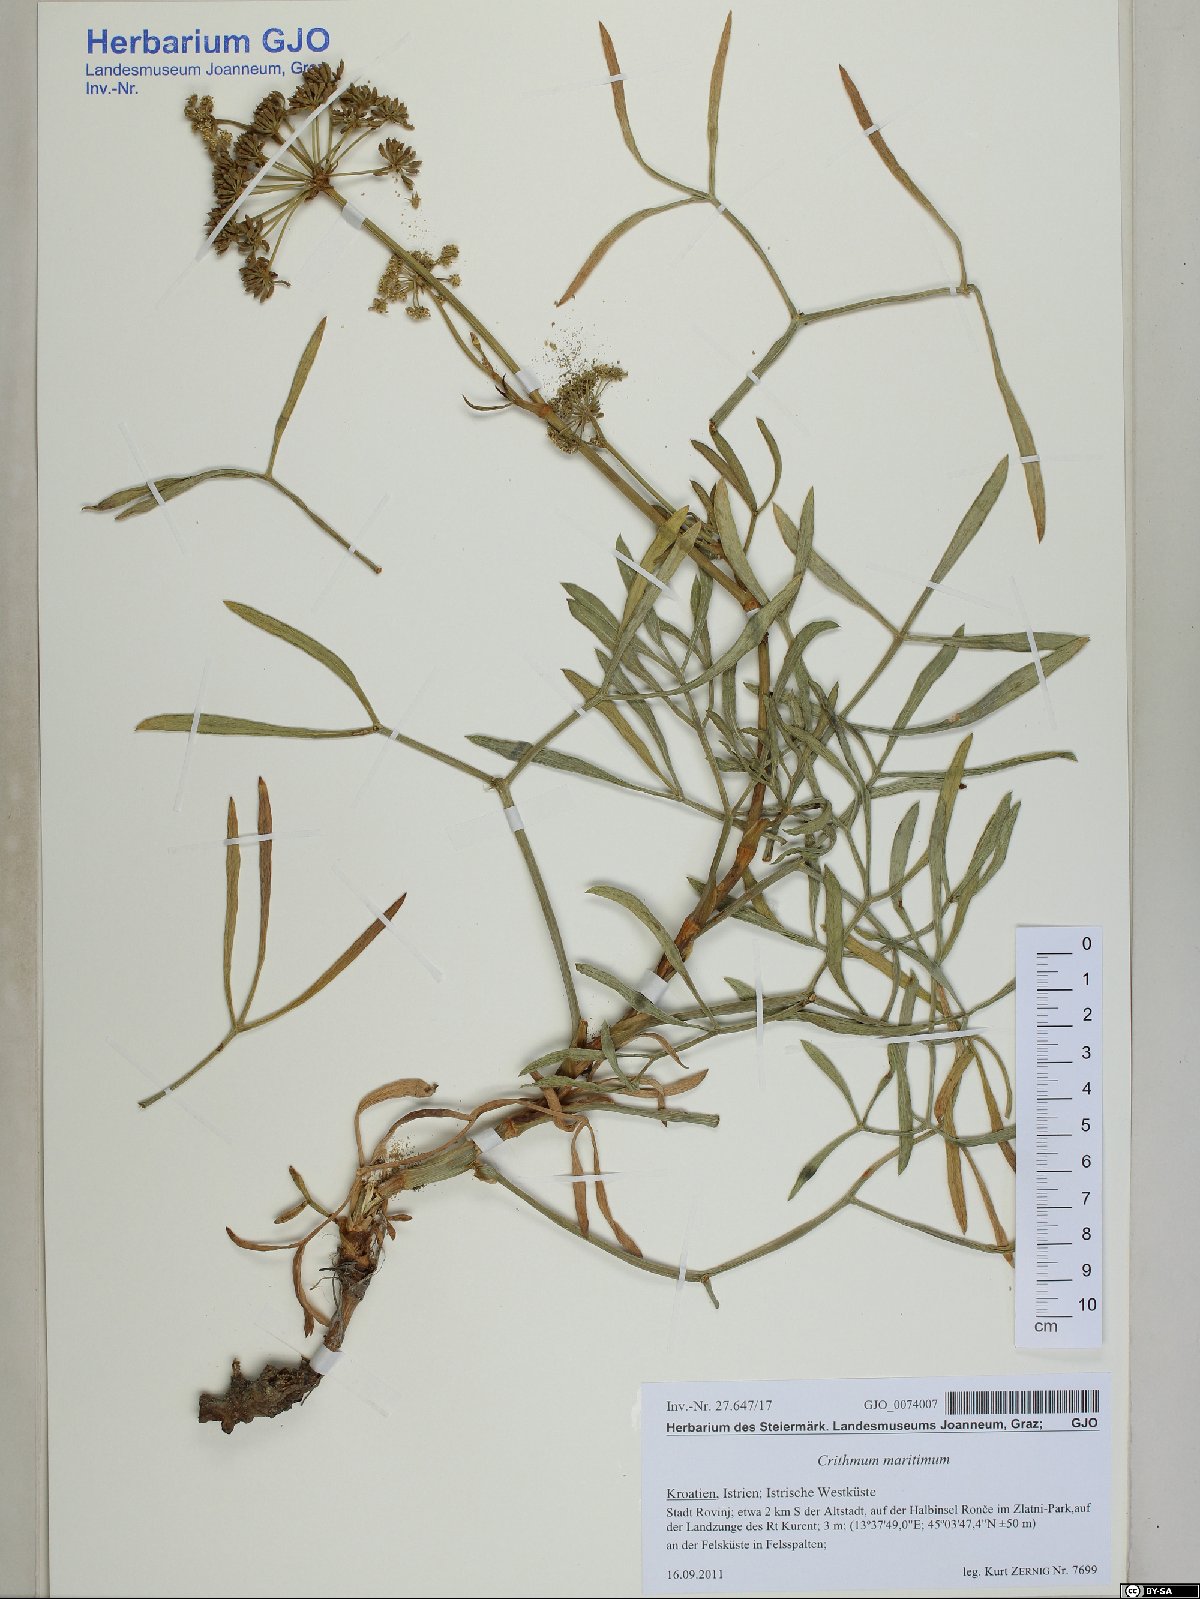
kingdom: Plantae
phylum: Tracheophyta
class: Magnoliopsida
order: Apiales
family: Apiaceae
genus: Crithmum
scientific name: Crithmum maritimum
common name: Rock samphire
